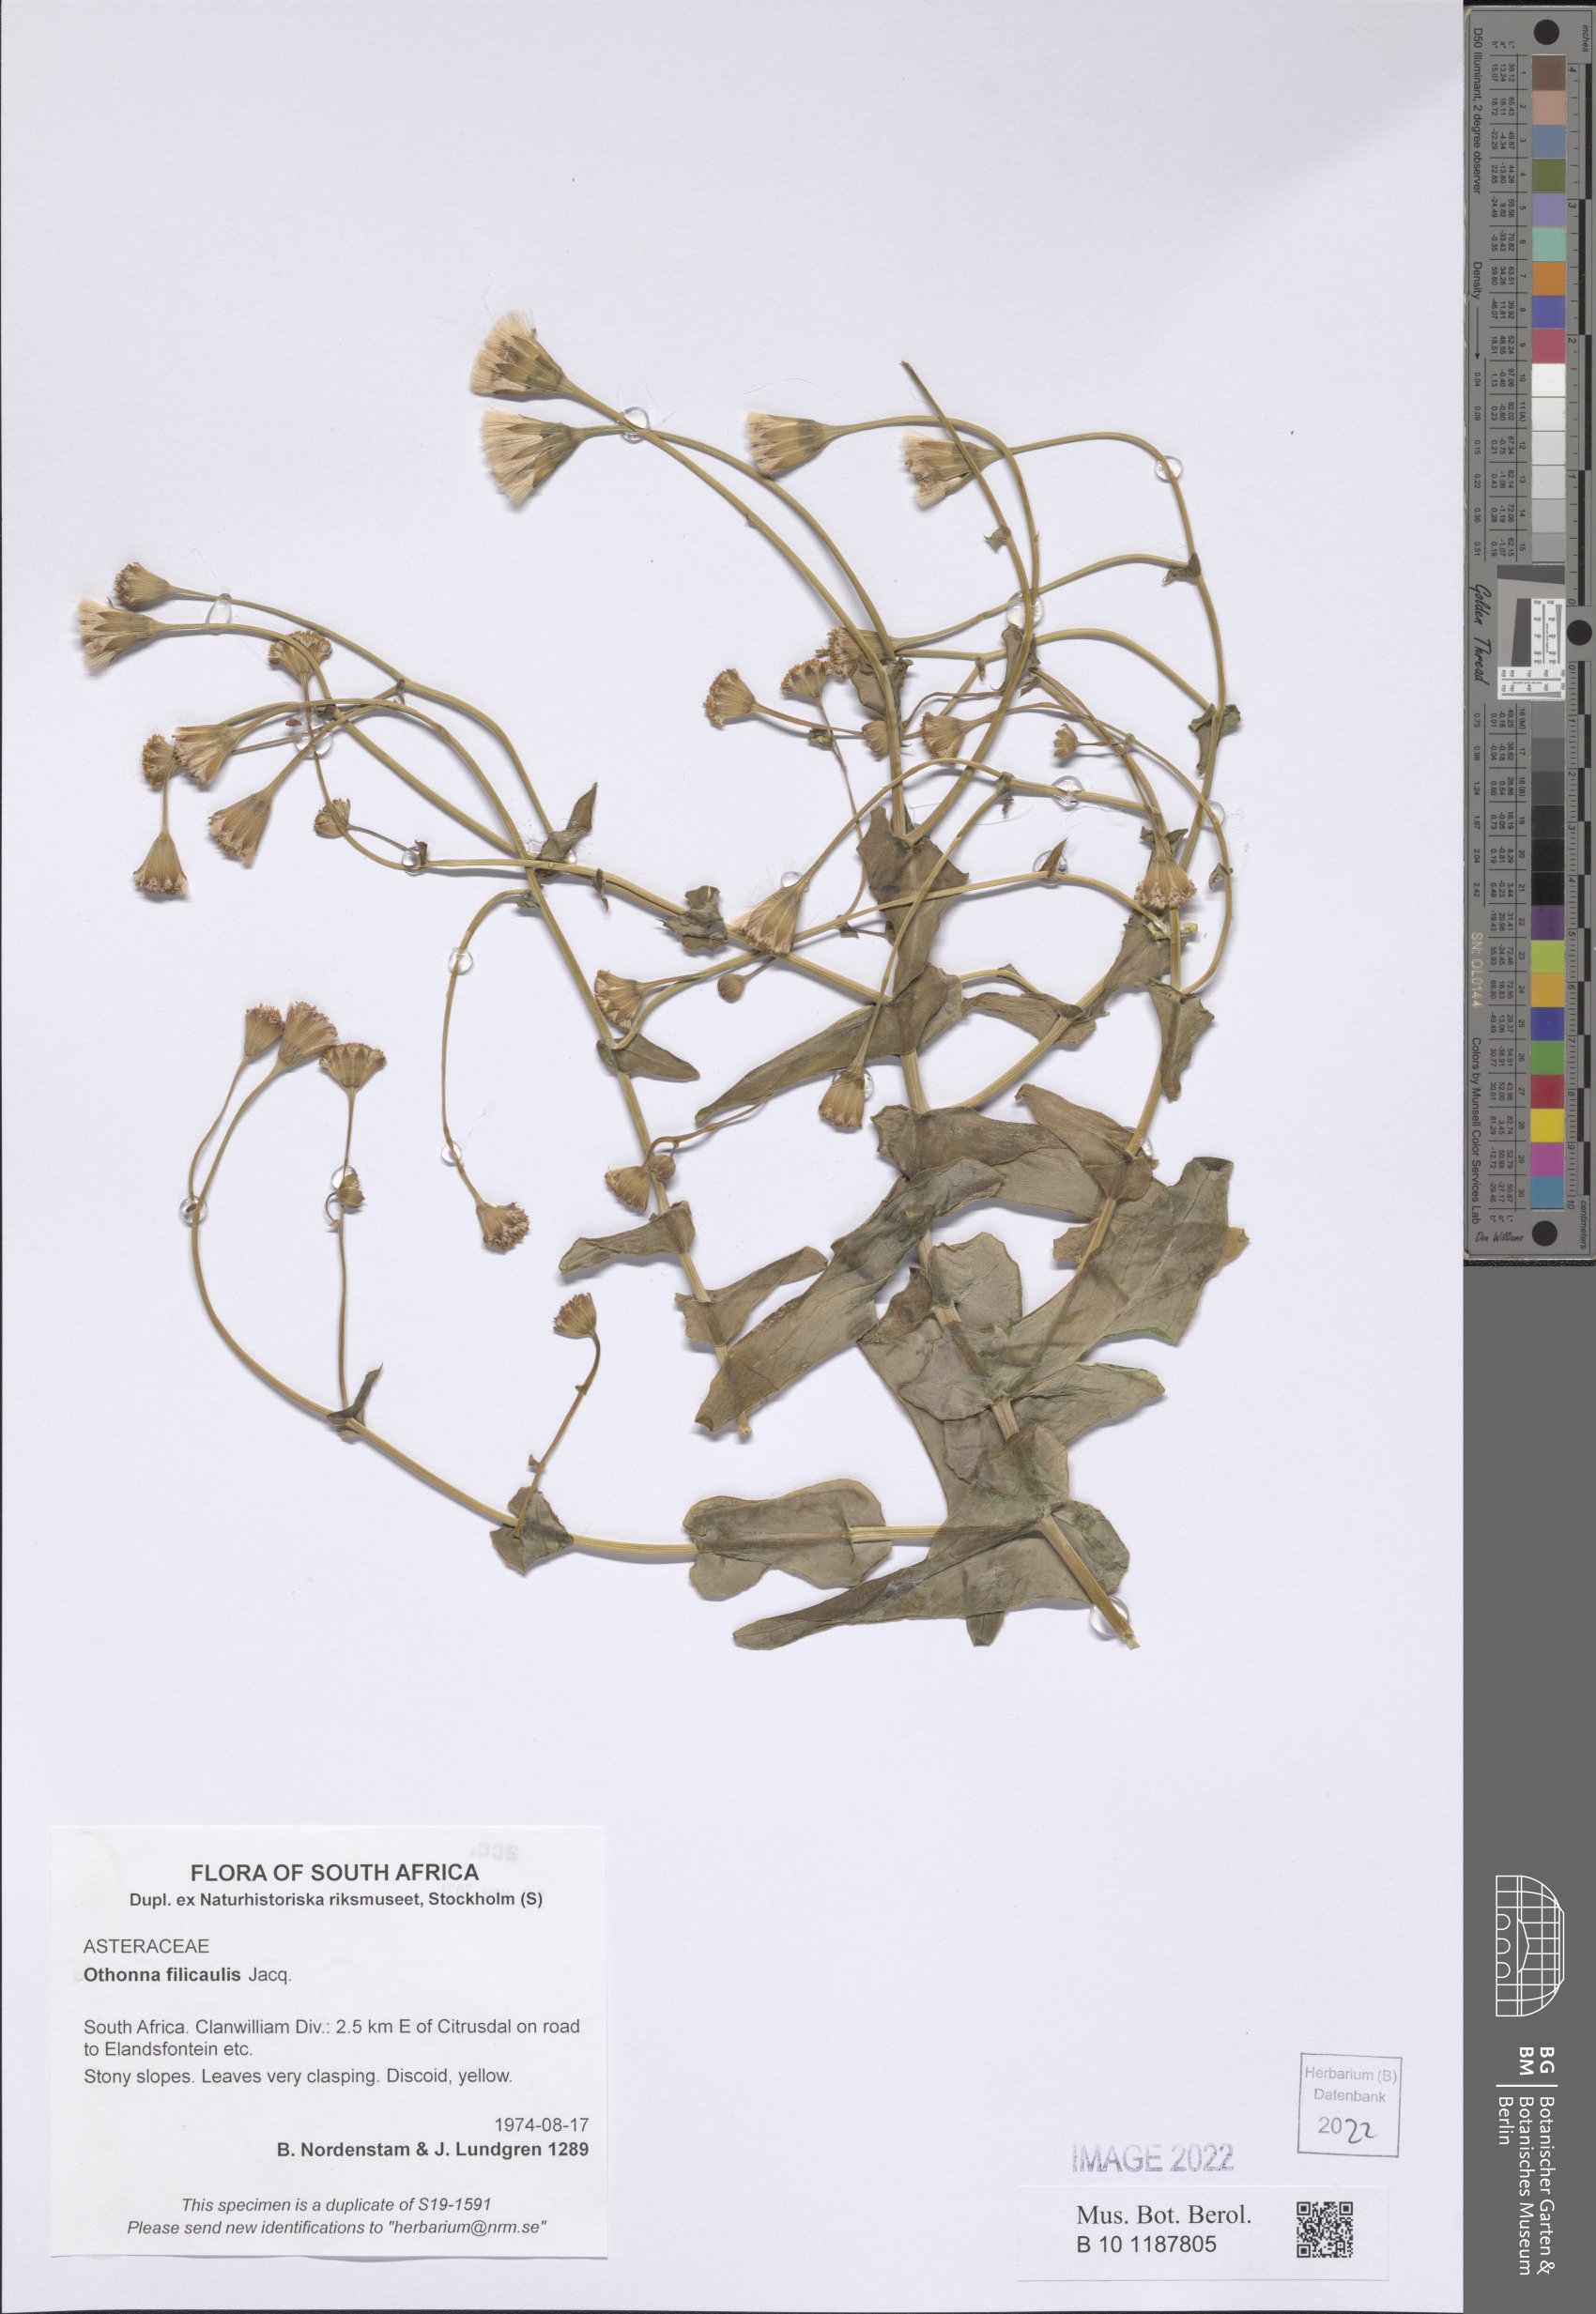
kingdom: Plantae
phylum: Tracheophyta
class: Magnoliopsida
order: Asterales
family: Asteraceae
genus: Othonna
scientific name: Othonna perfoliata
